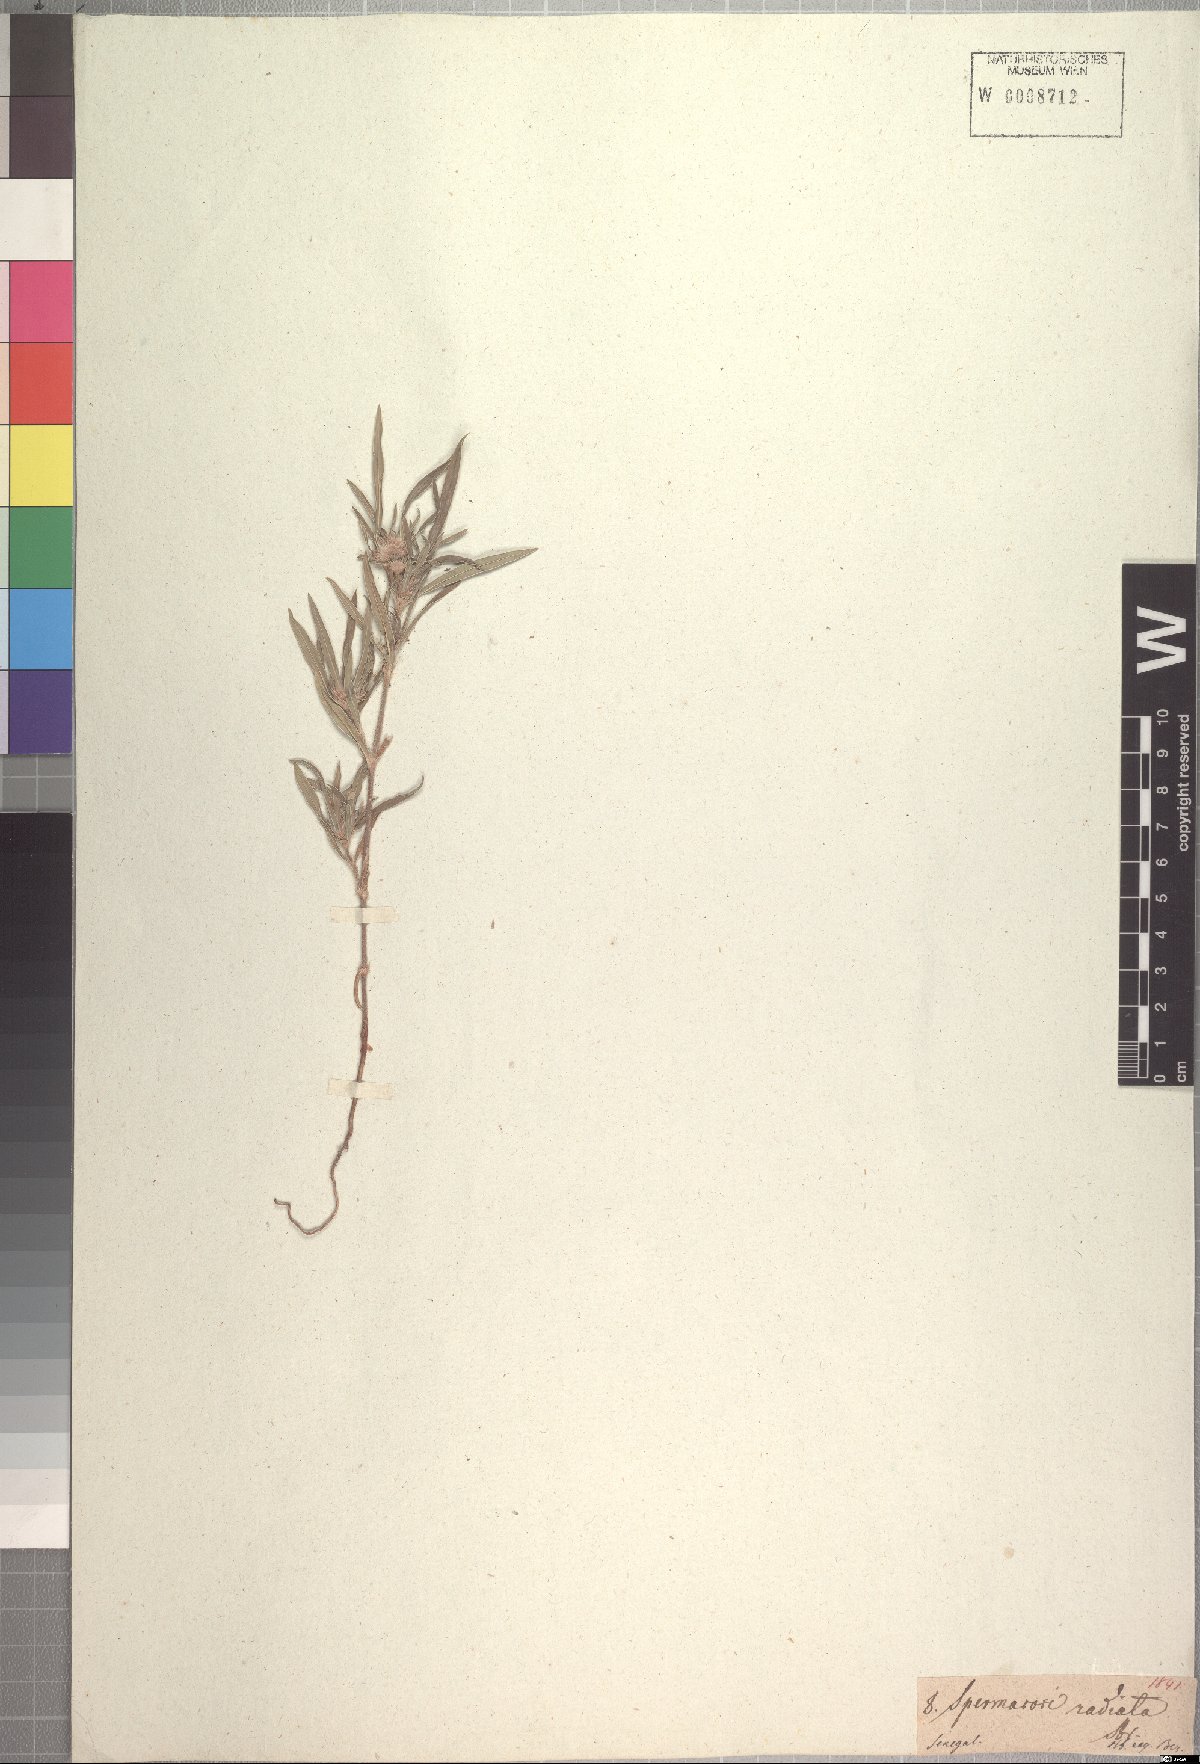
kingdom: Plantae
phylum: Tracheophyta
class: Magnoliopsida
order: Gentianales
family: Rubiaceae
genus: Spermacoce
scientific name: Spermacoce radiata
